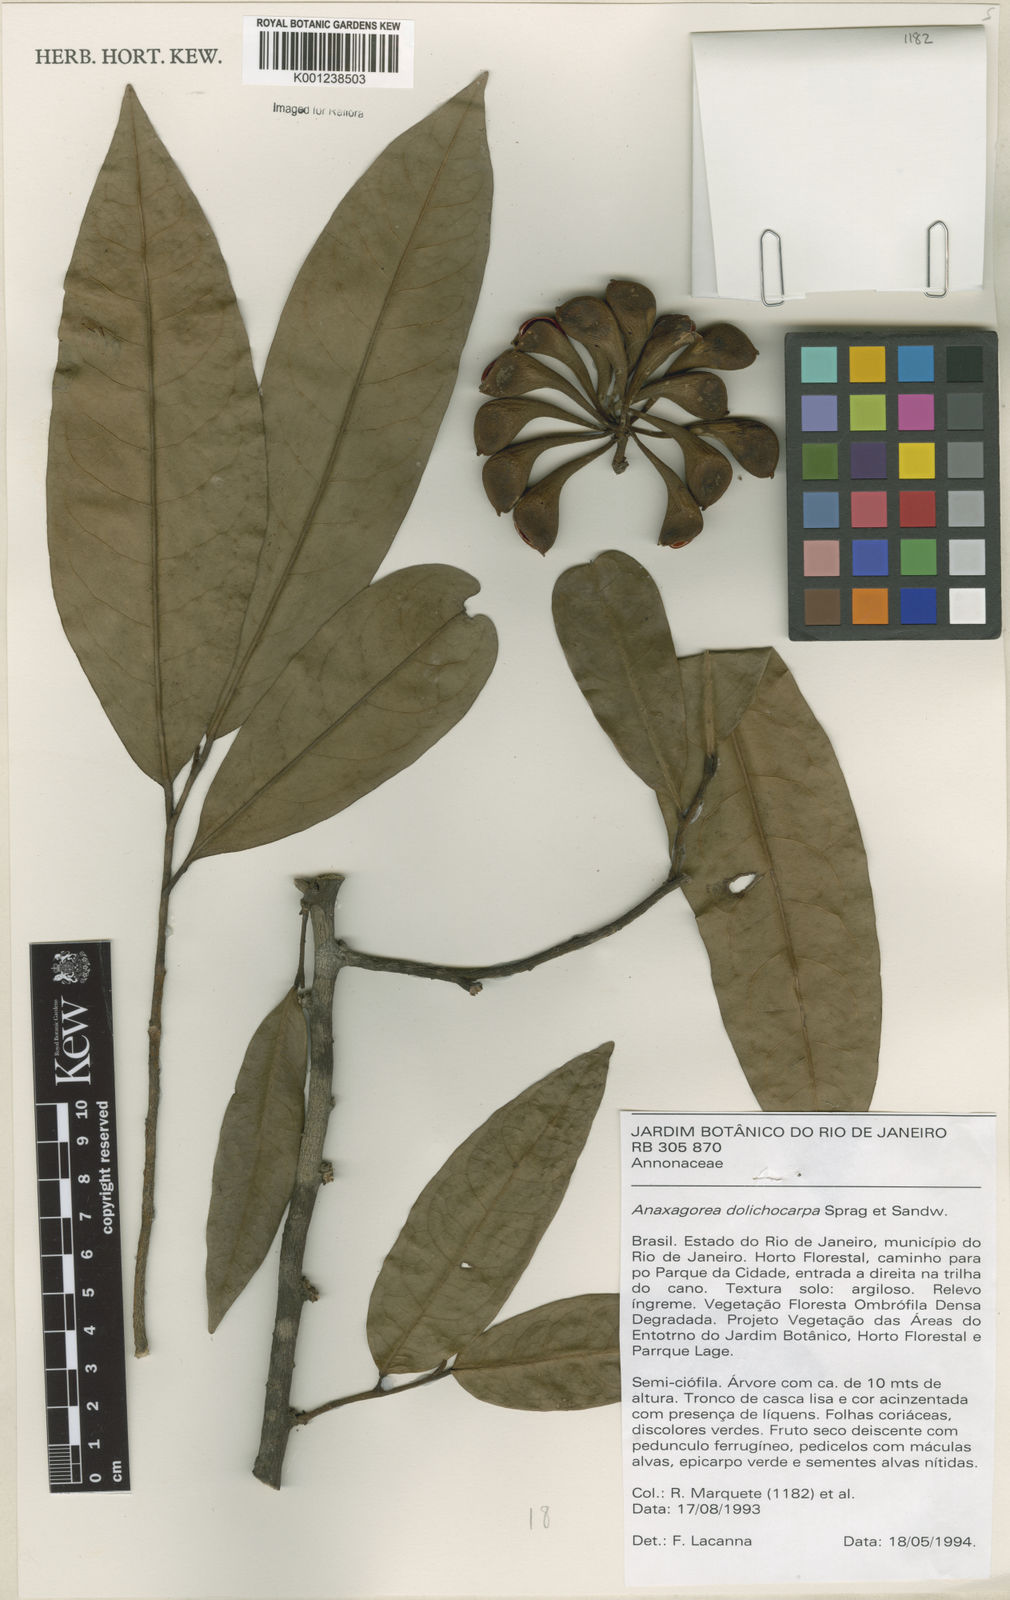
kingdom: Plantae
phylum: Tracheophyta
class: Magnoliopsida
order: Magnoliales
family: Annonaceae
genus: Anaxagorea
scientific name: Anaxagorea dolichocarpa
